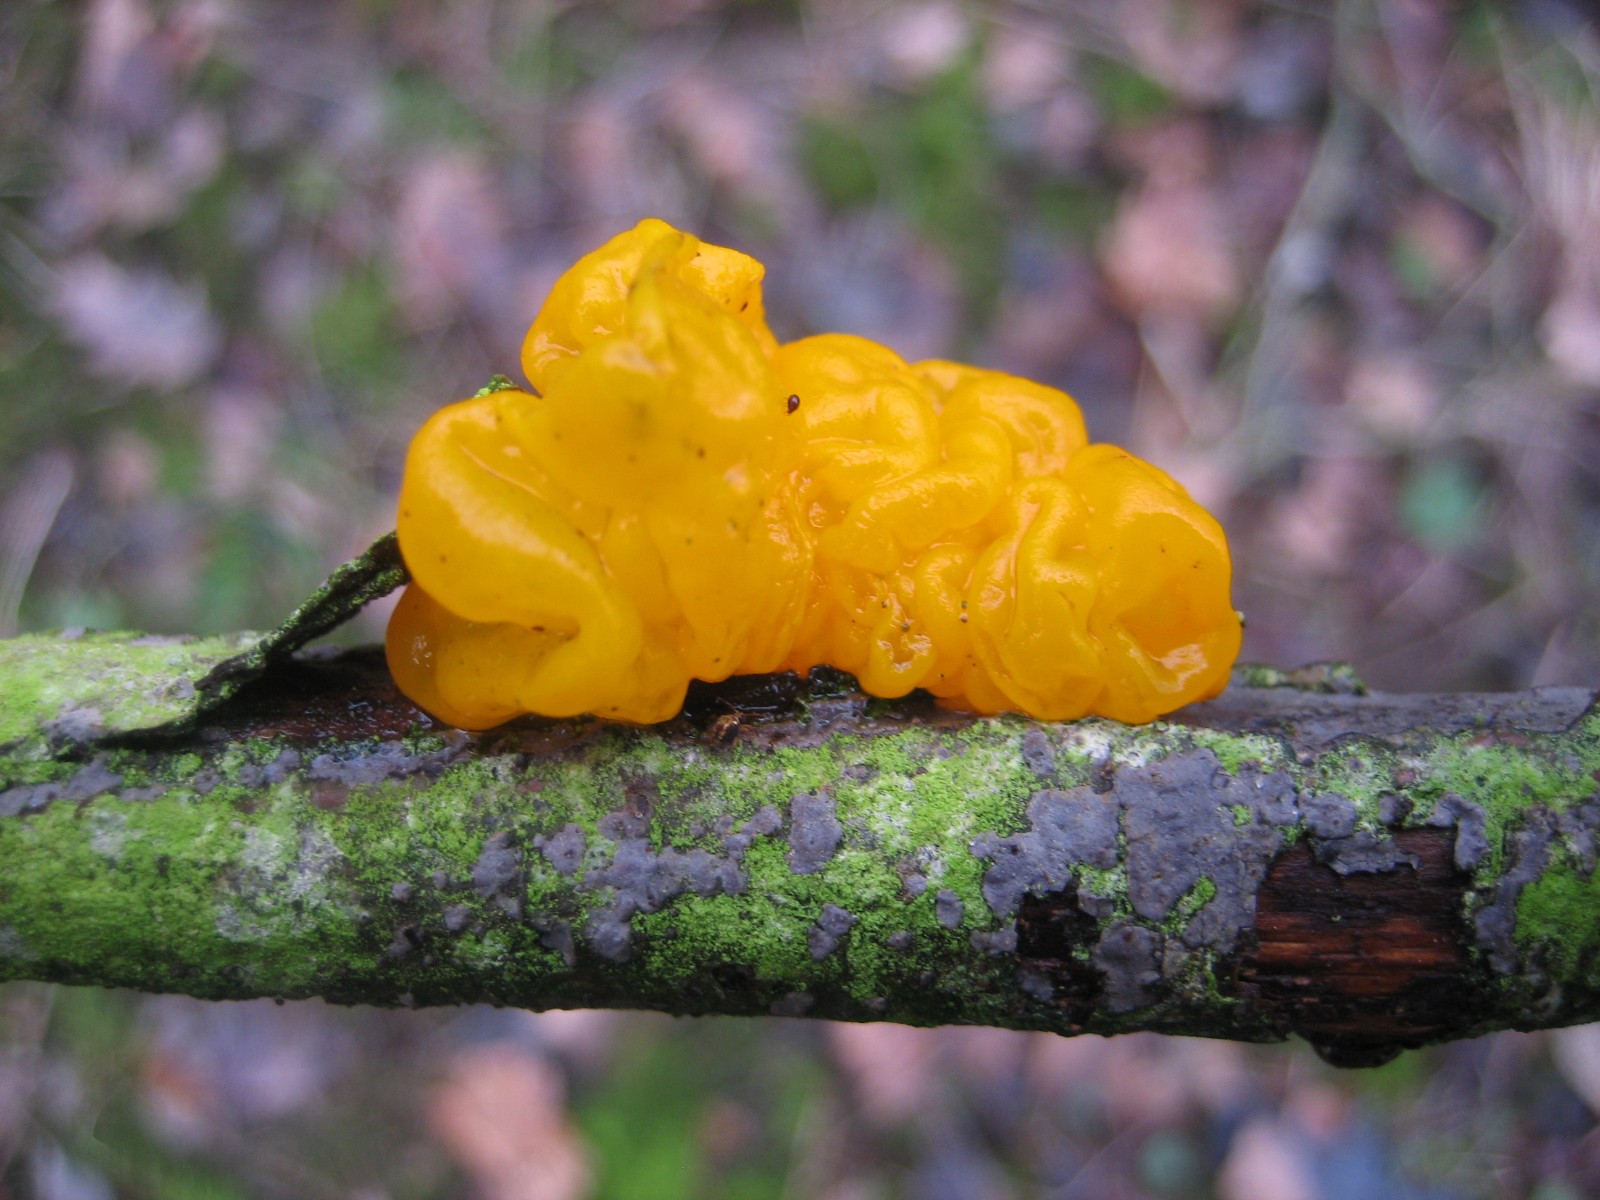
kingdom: Fungi
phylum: Basidiomycota
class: Tremellomycetes
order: Tremellales
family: Tremellaceae
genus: Tremella
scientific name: Tremella mesenterica
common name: gul bævresvamp
